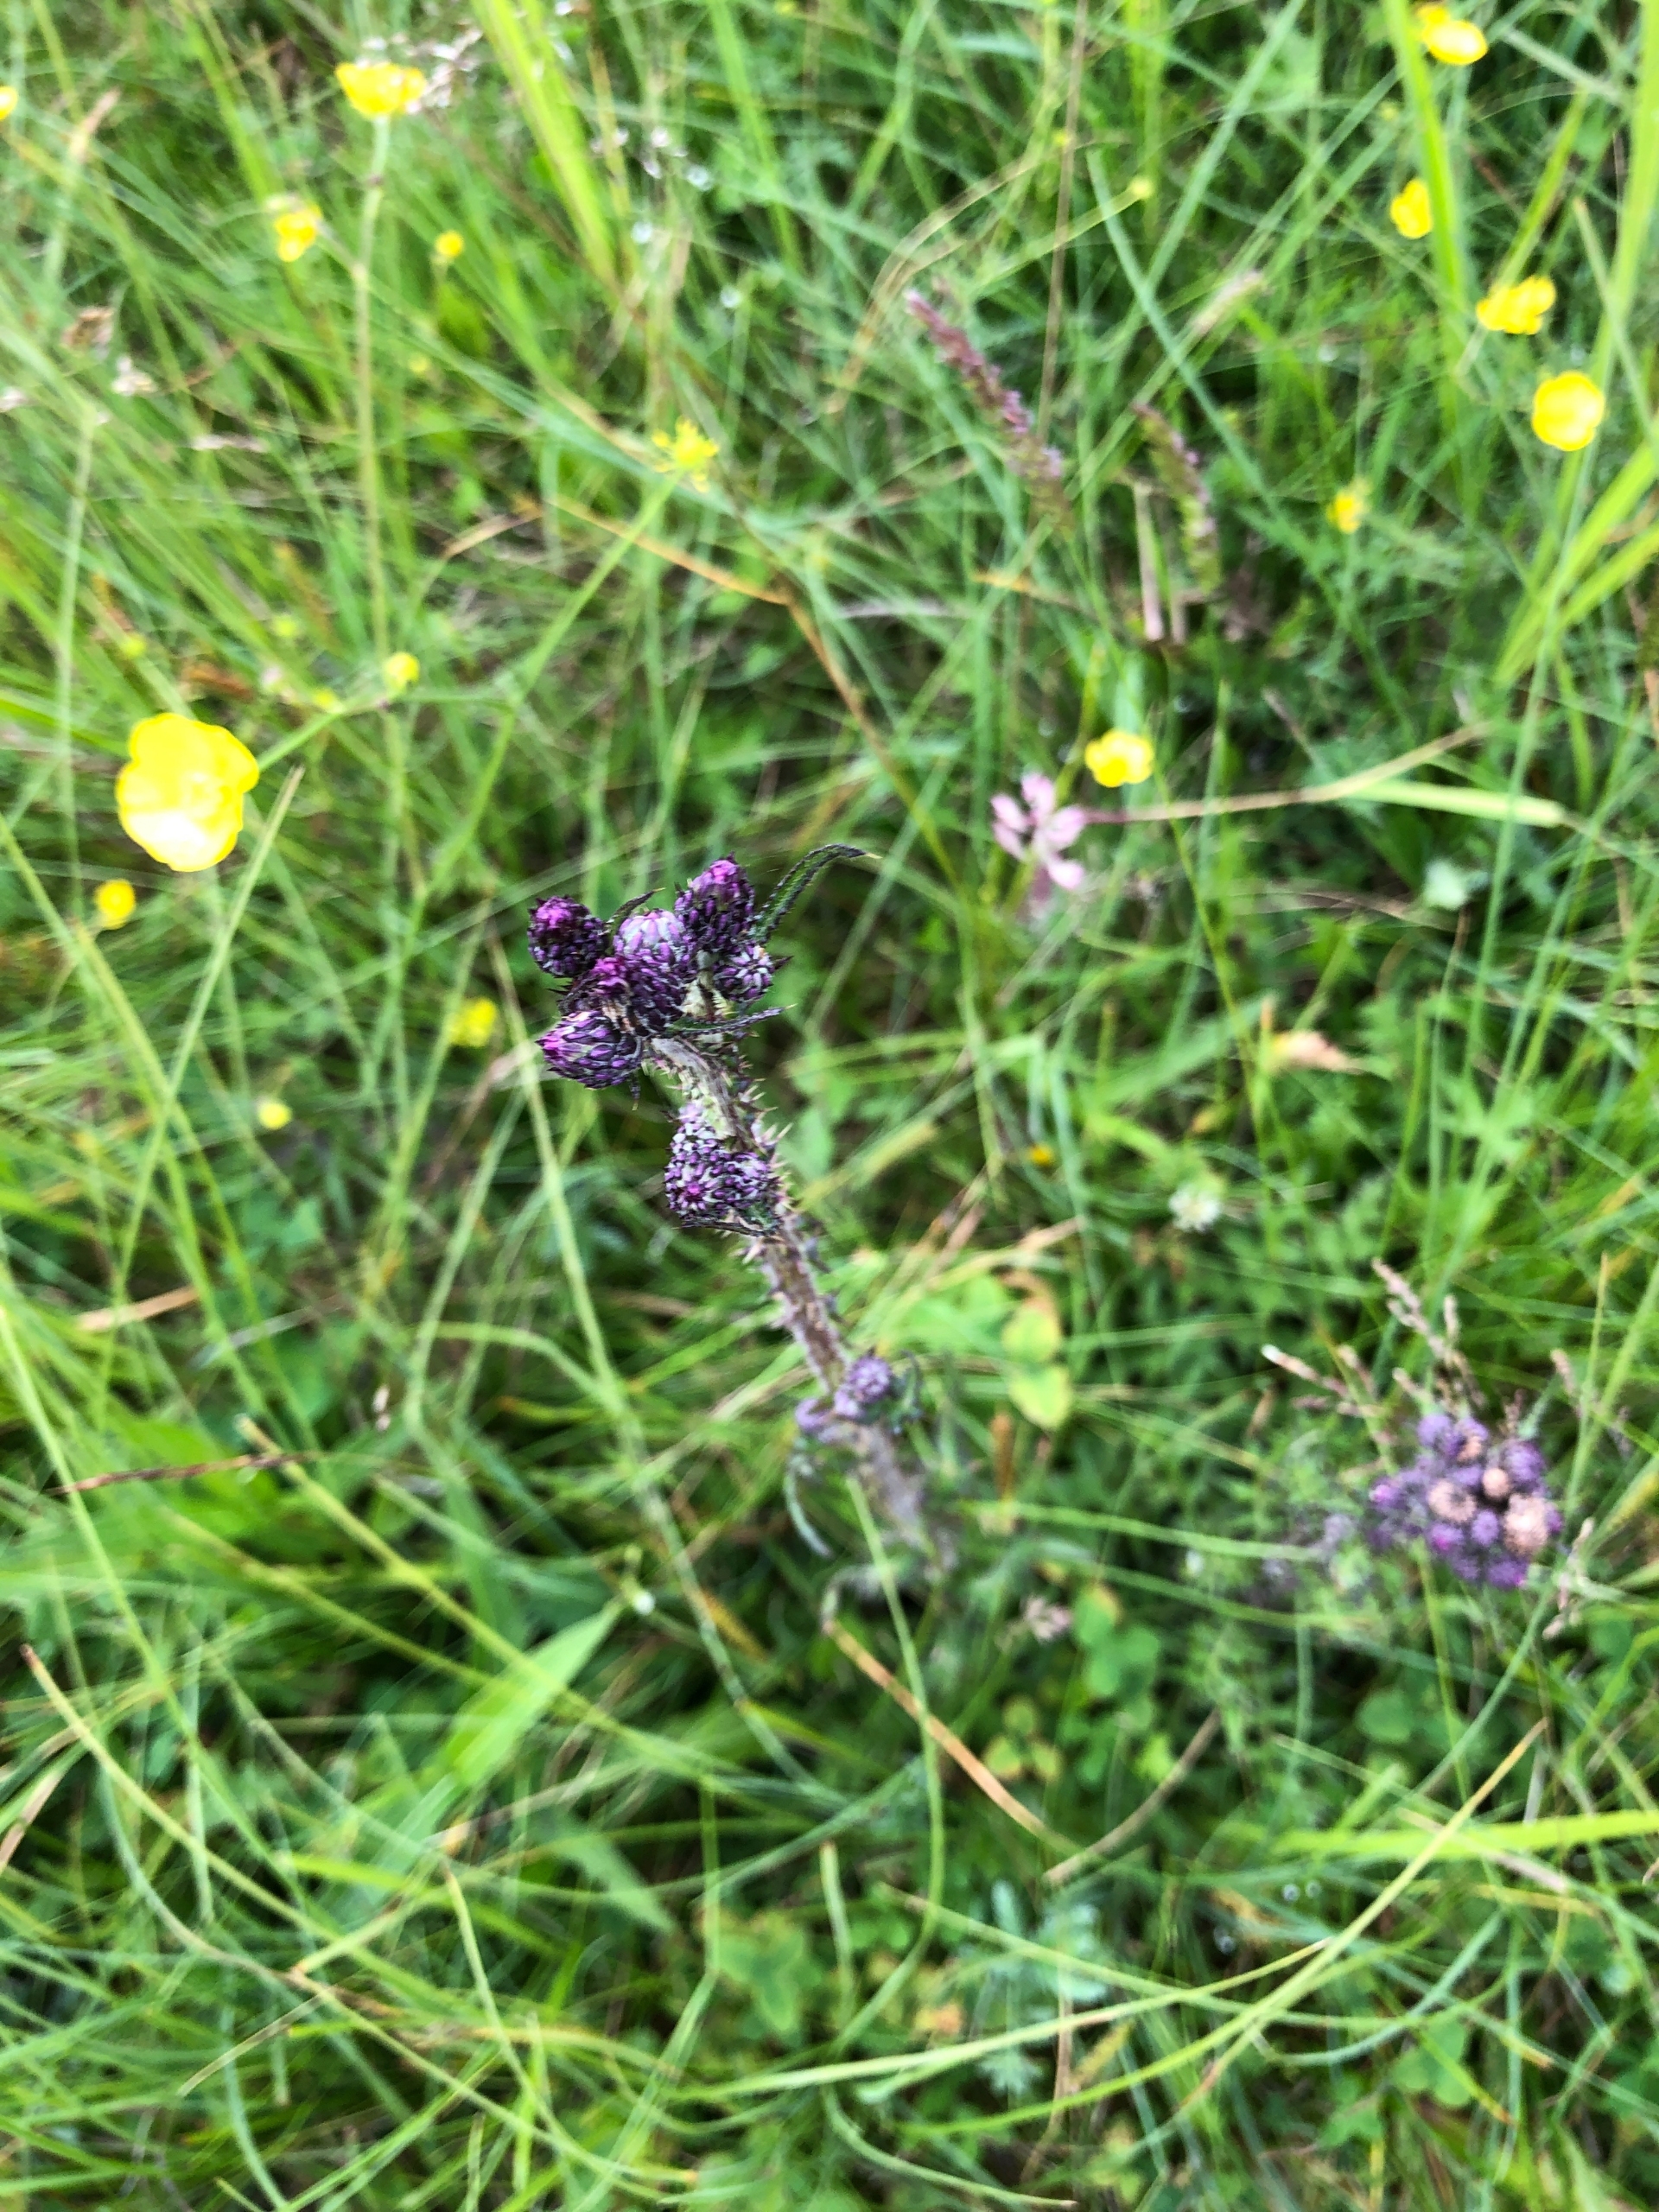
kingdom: Plantae
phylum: Tracheophyta
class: Magnoliopsida
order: Asterales
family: Asteraceae
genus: Cirsium
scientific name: Cirsium palustre
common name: Kær-tidsel
